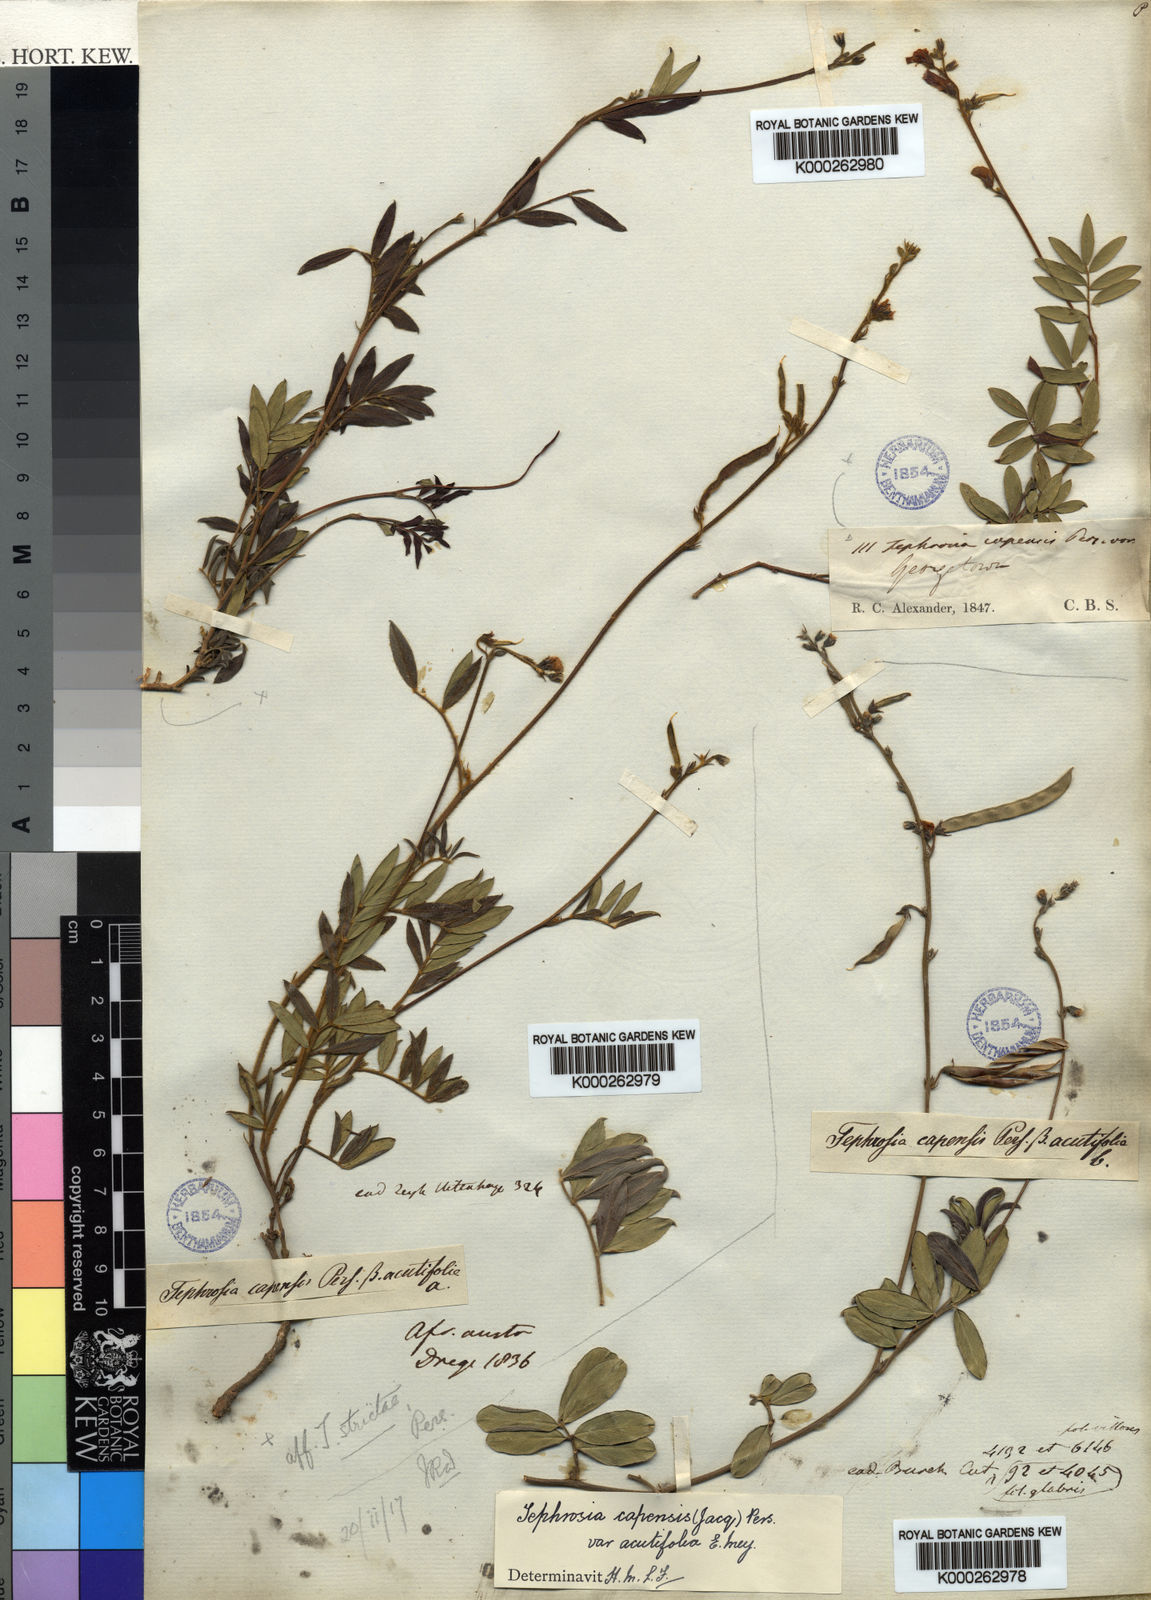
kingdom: Plantae
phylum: Tracheophyta
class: Magnoliopsida
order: Fabales
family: Fabaceae
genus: Tephrosia
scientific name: Tephrosia capensis
